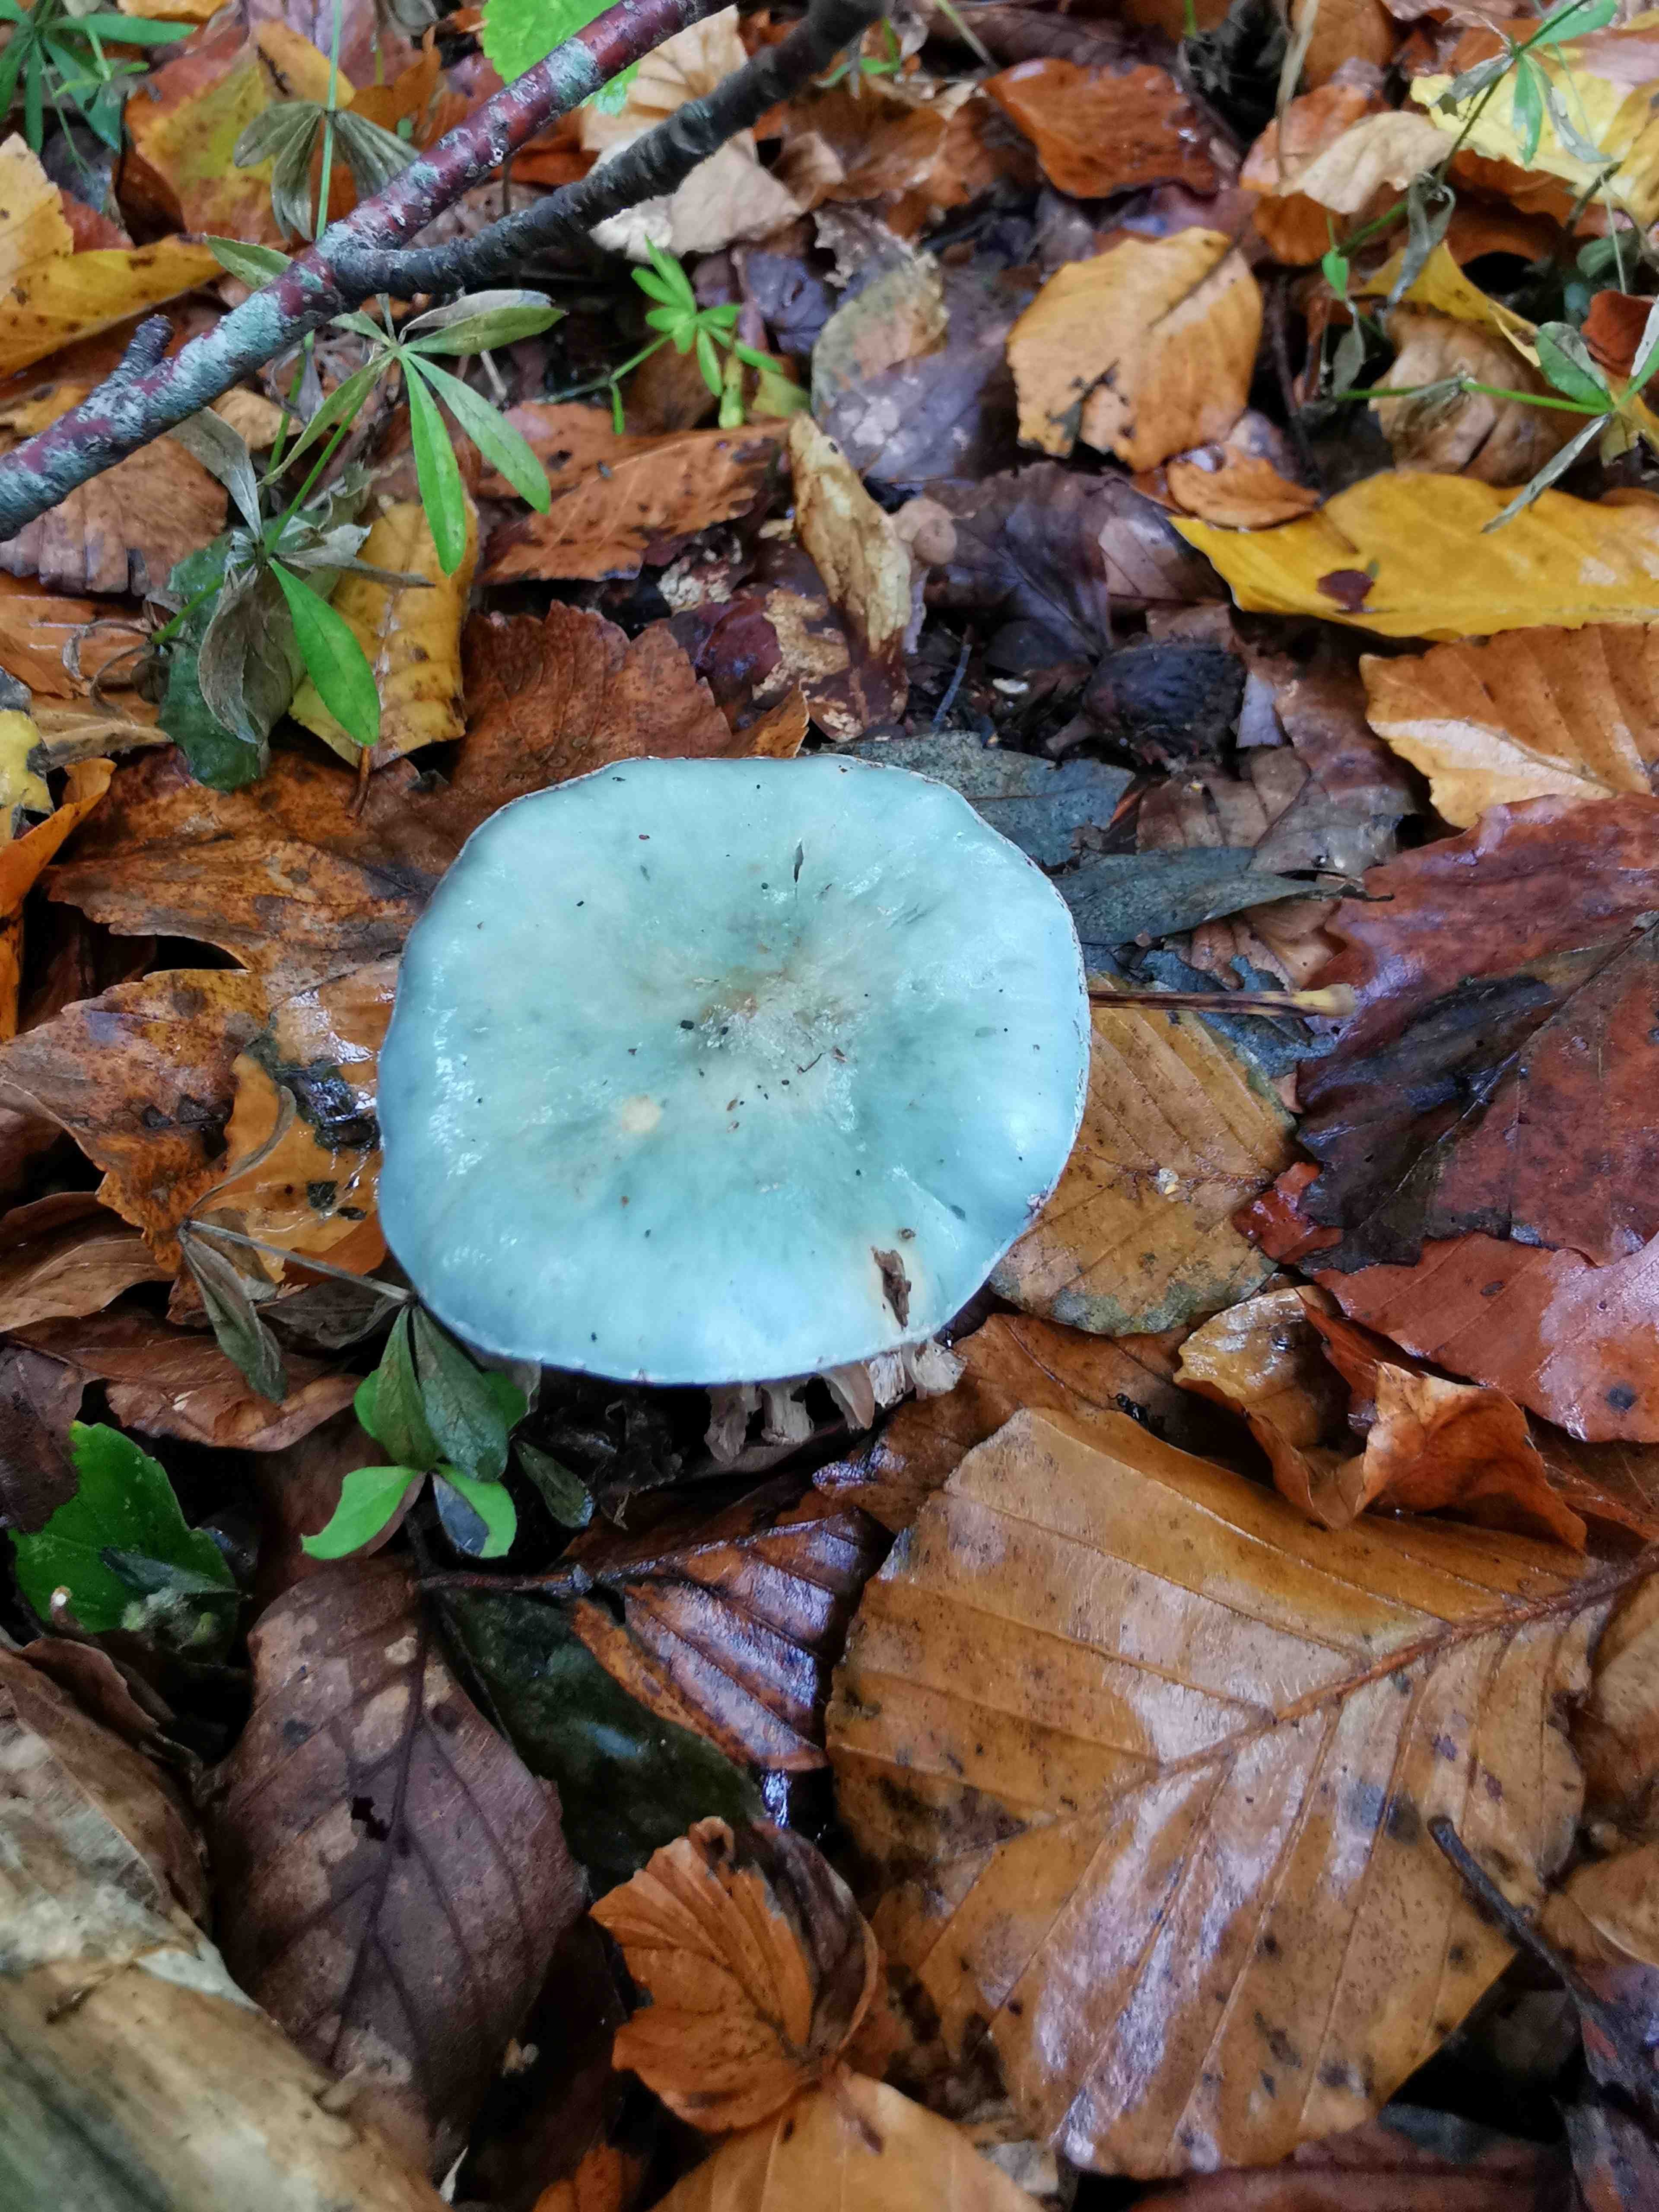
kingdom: Fungi
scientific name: Fungi
